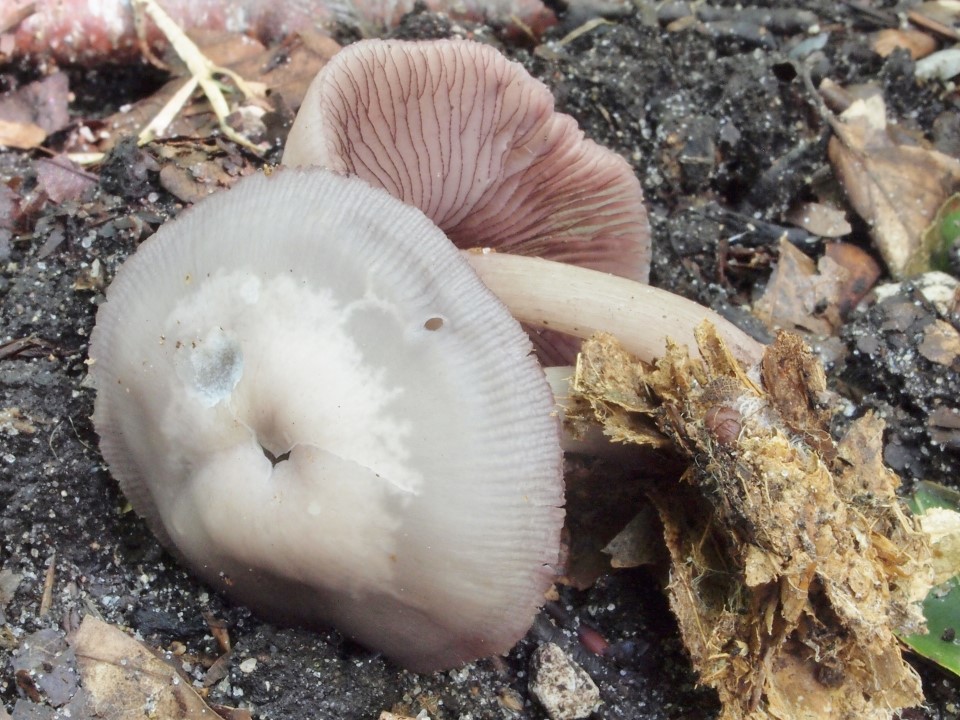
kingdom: Fungi
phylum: Basidiomycota
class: Agaricomycetes
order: Agaricales
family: Mycenaceae
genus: Mycena
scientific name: Mycena pelianthina
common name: mørkbladet huesvamp
